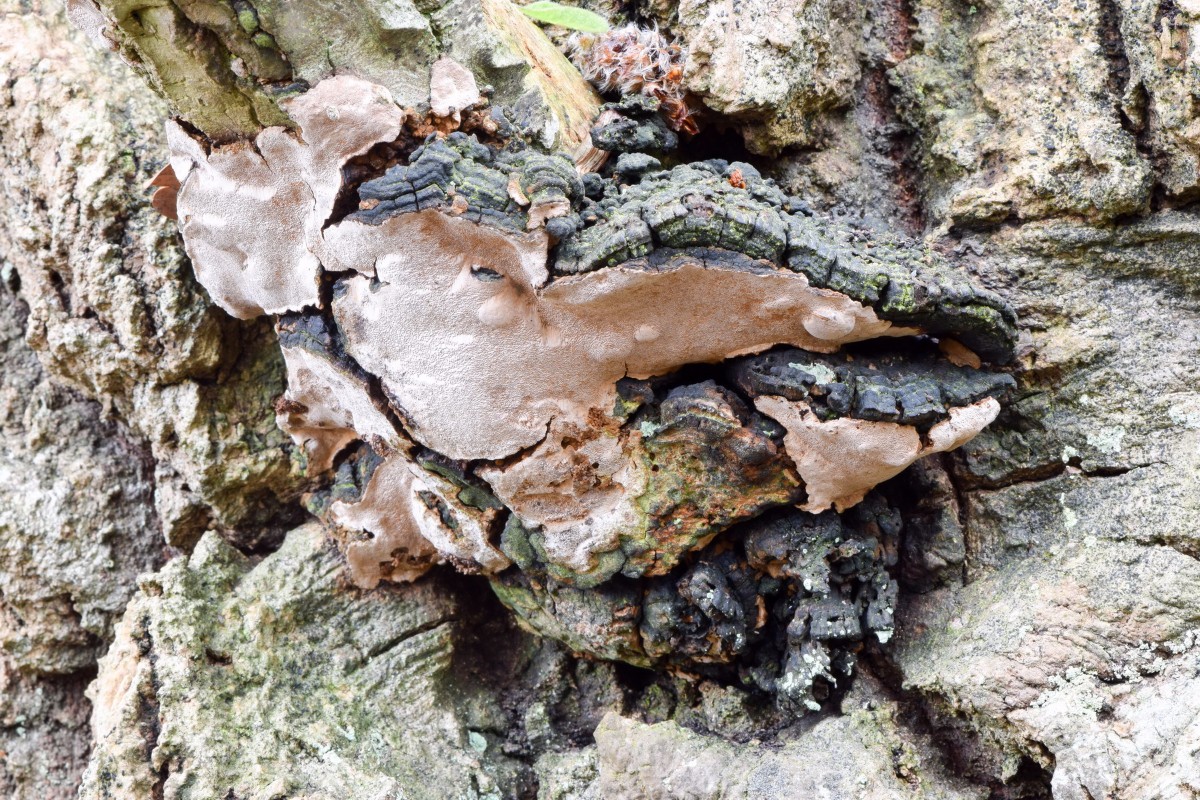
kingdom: Fungi
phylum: Basidiomycota
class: Agaricomycetes
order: Hymenochaetales
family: Hymenochaetaceae
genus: Phellinus
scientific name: Phellinus tremulae
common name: aspe-ildporesvamp
